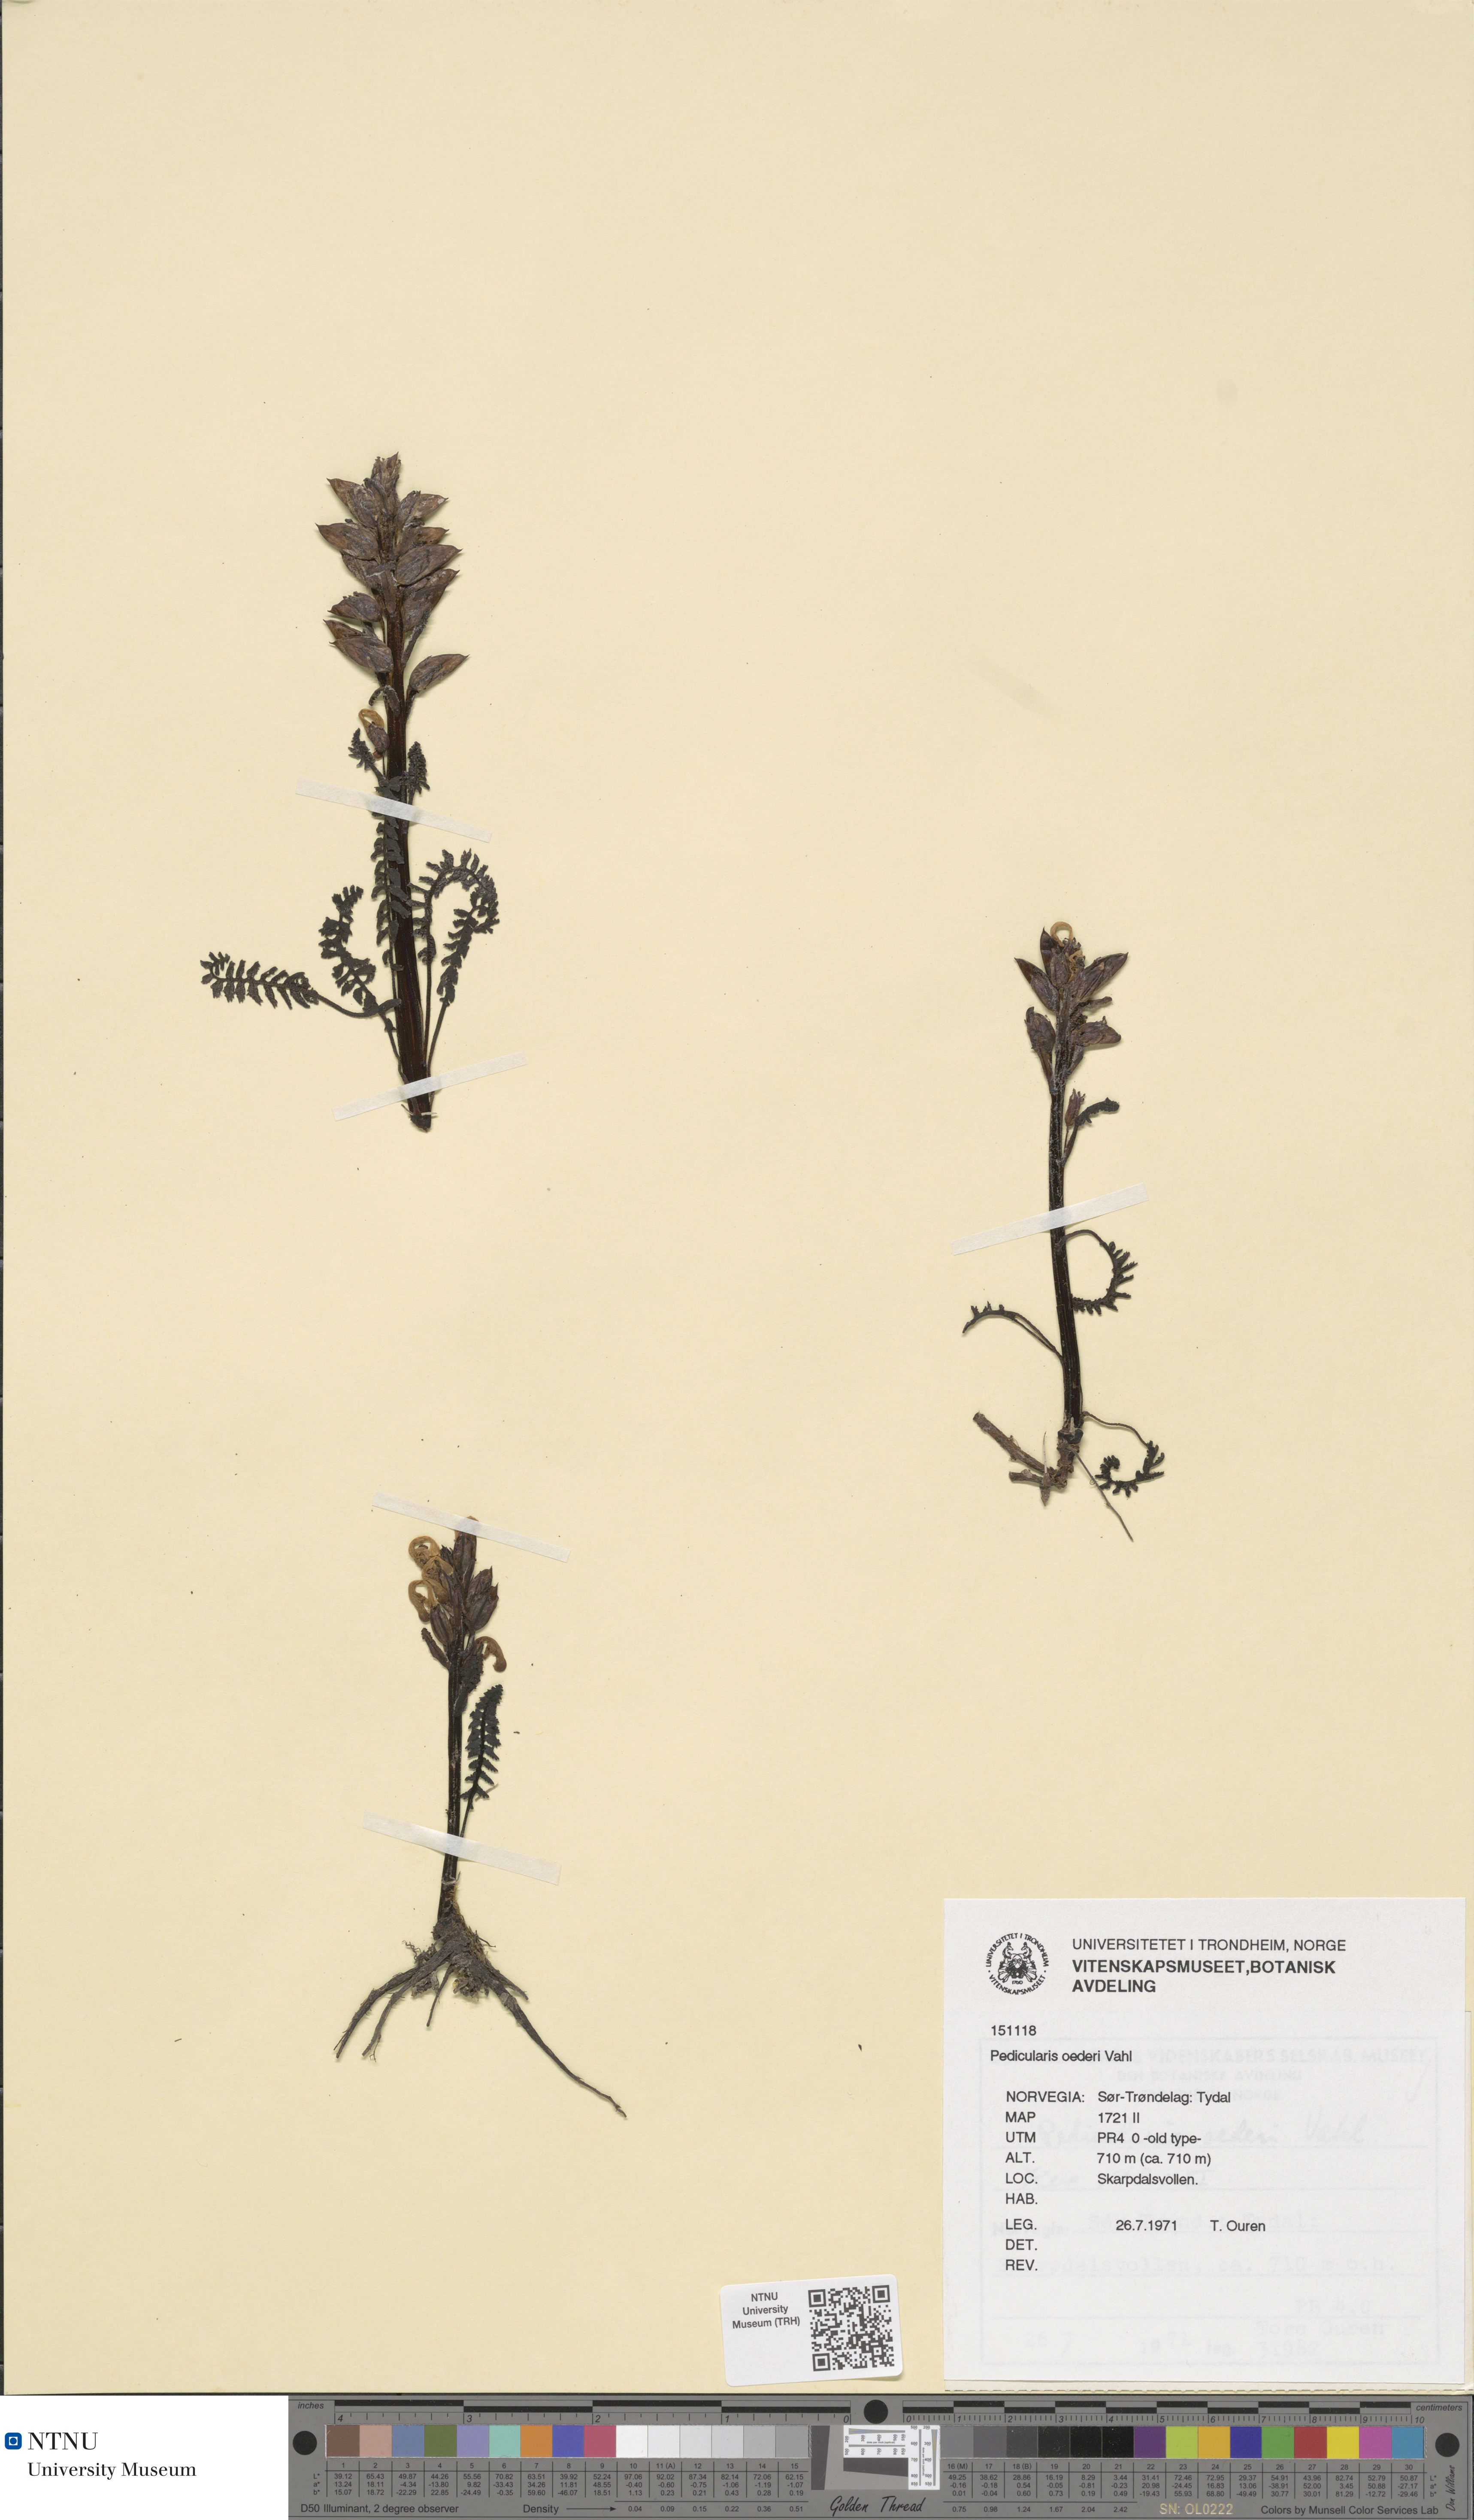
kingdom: Plantae
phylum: Tracheophyta
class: Magnoliopsida
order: Lamiales
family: Orobanchaceae
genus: Pedicularis
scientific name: Pedicularis oederi
